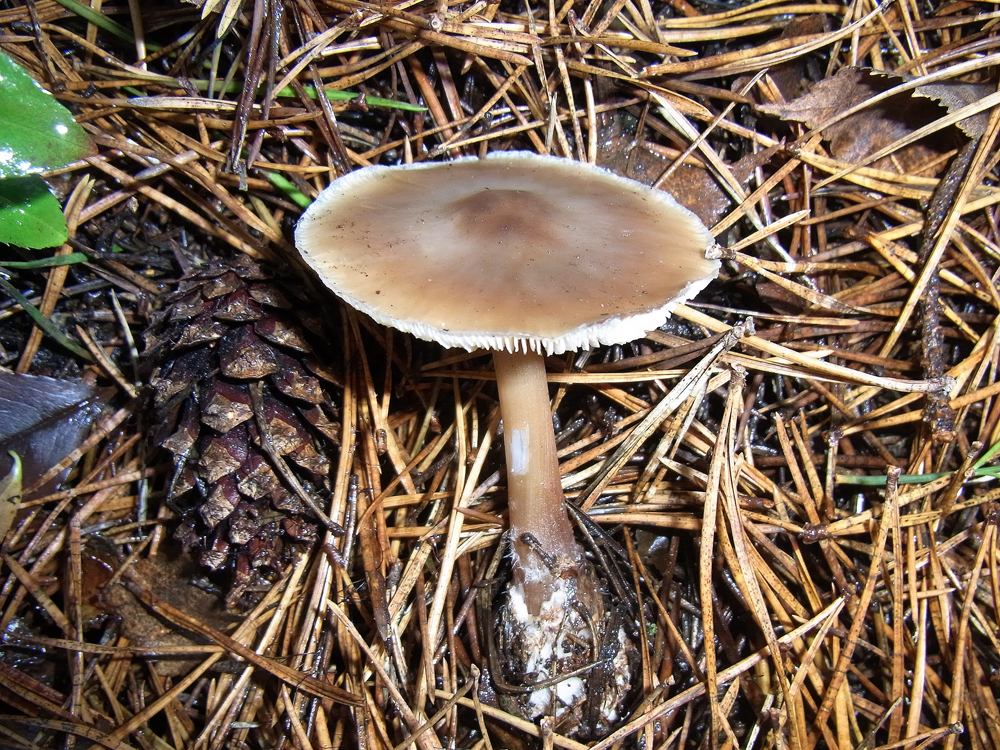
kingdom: Fungi
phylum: Basidiomycota
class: Agaricomycetes
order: Agaricales
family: Omphalotaceae
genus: Rhodocollybia
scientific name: Rhodocollybia butyracea
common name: Butter cap
